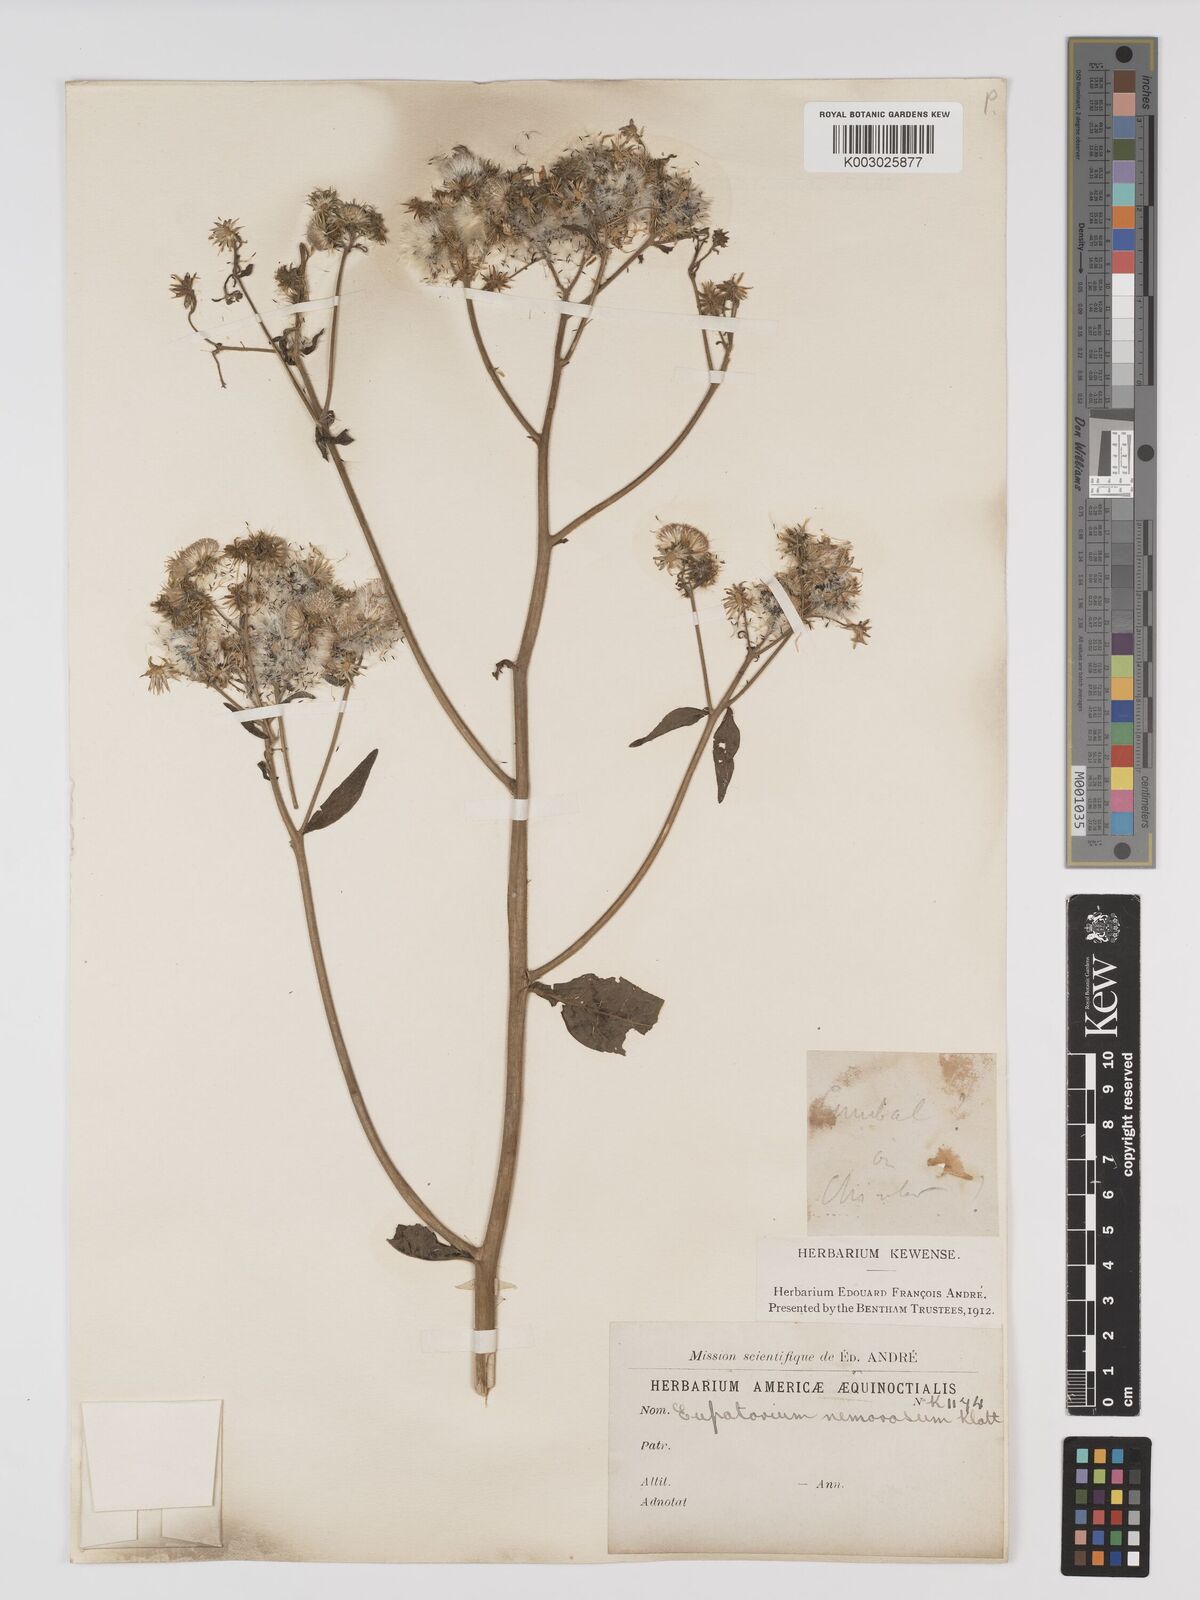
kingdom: Plantae
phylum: Tracheophyta
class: Magnoliopsida
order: Asterales
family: Asteraceae
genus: Polyanthina
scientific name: Polyanthina nemorosa
